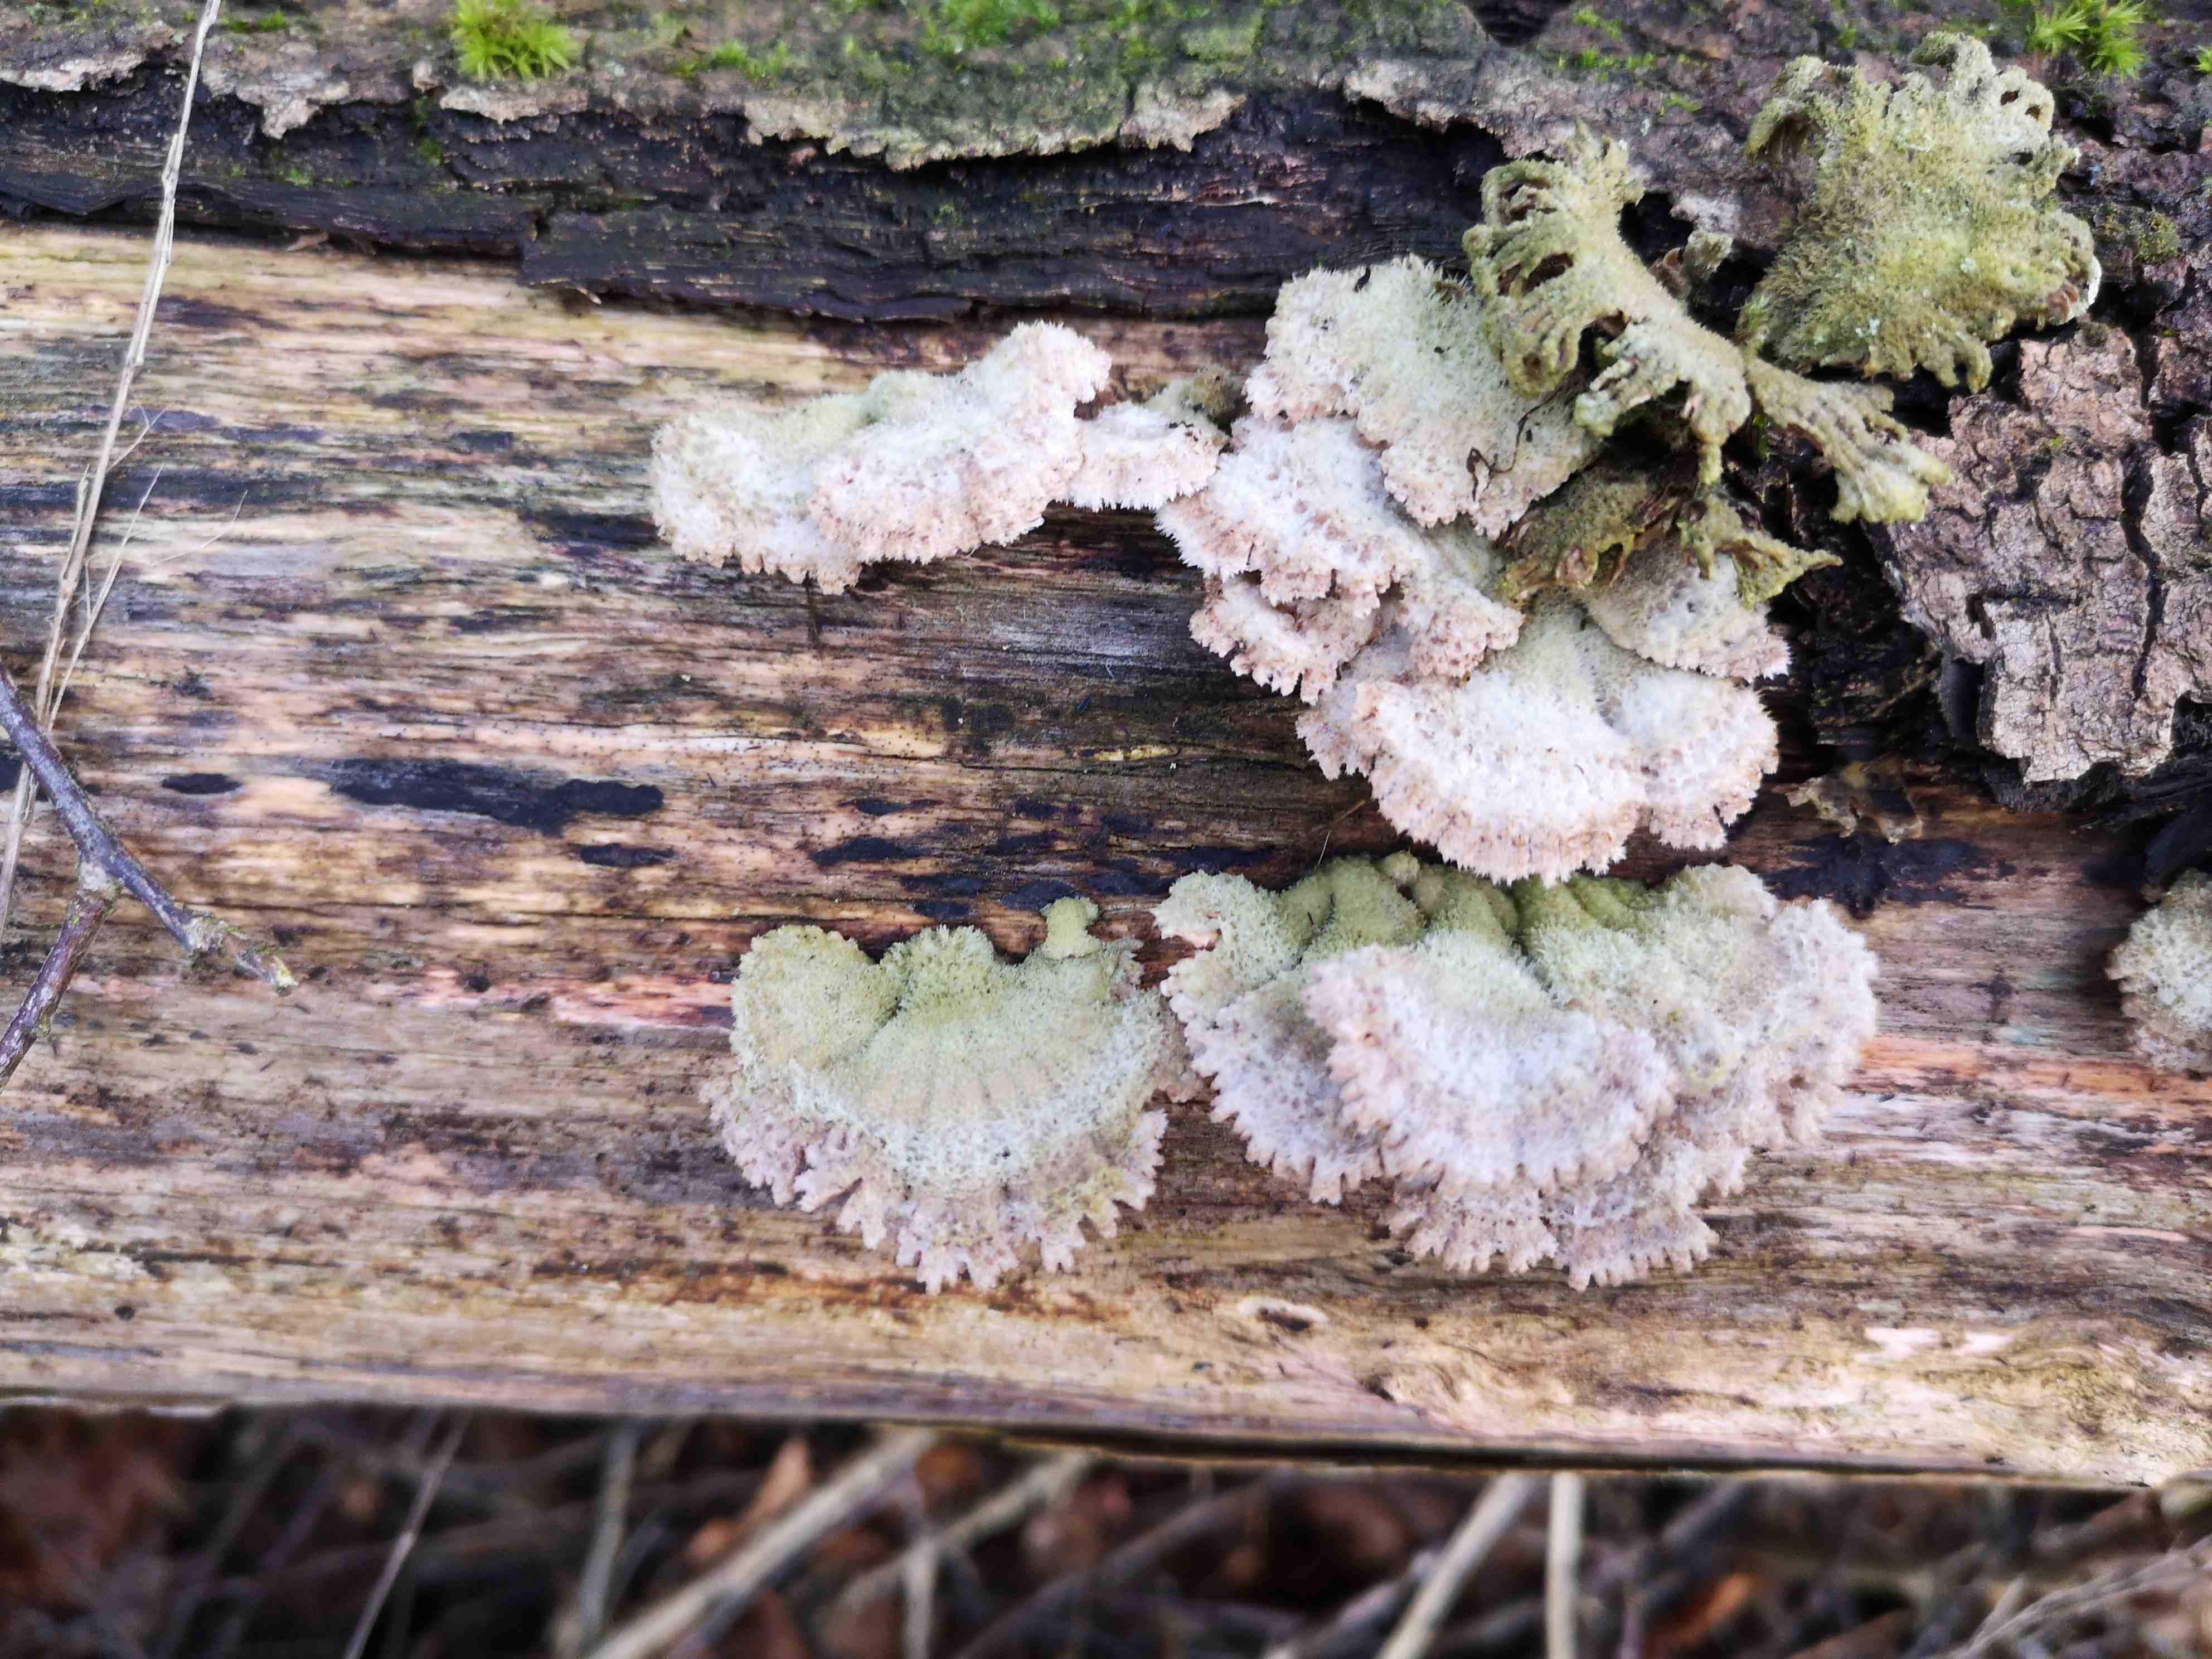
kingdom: Fungi
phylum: Basidiomycota
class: Agaricomycetes
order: Agaricales
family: Schizophyllaceae
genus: Schizophyllum
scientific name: Schizophyllum commune
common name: kløvblad
